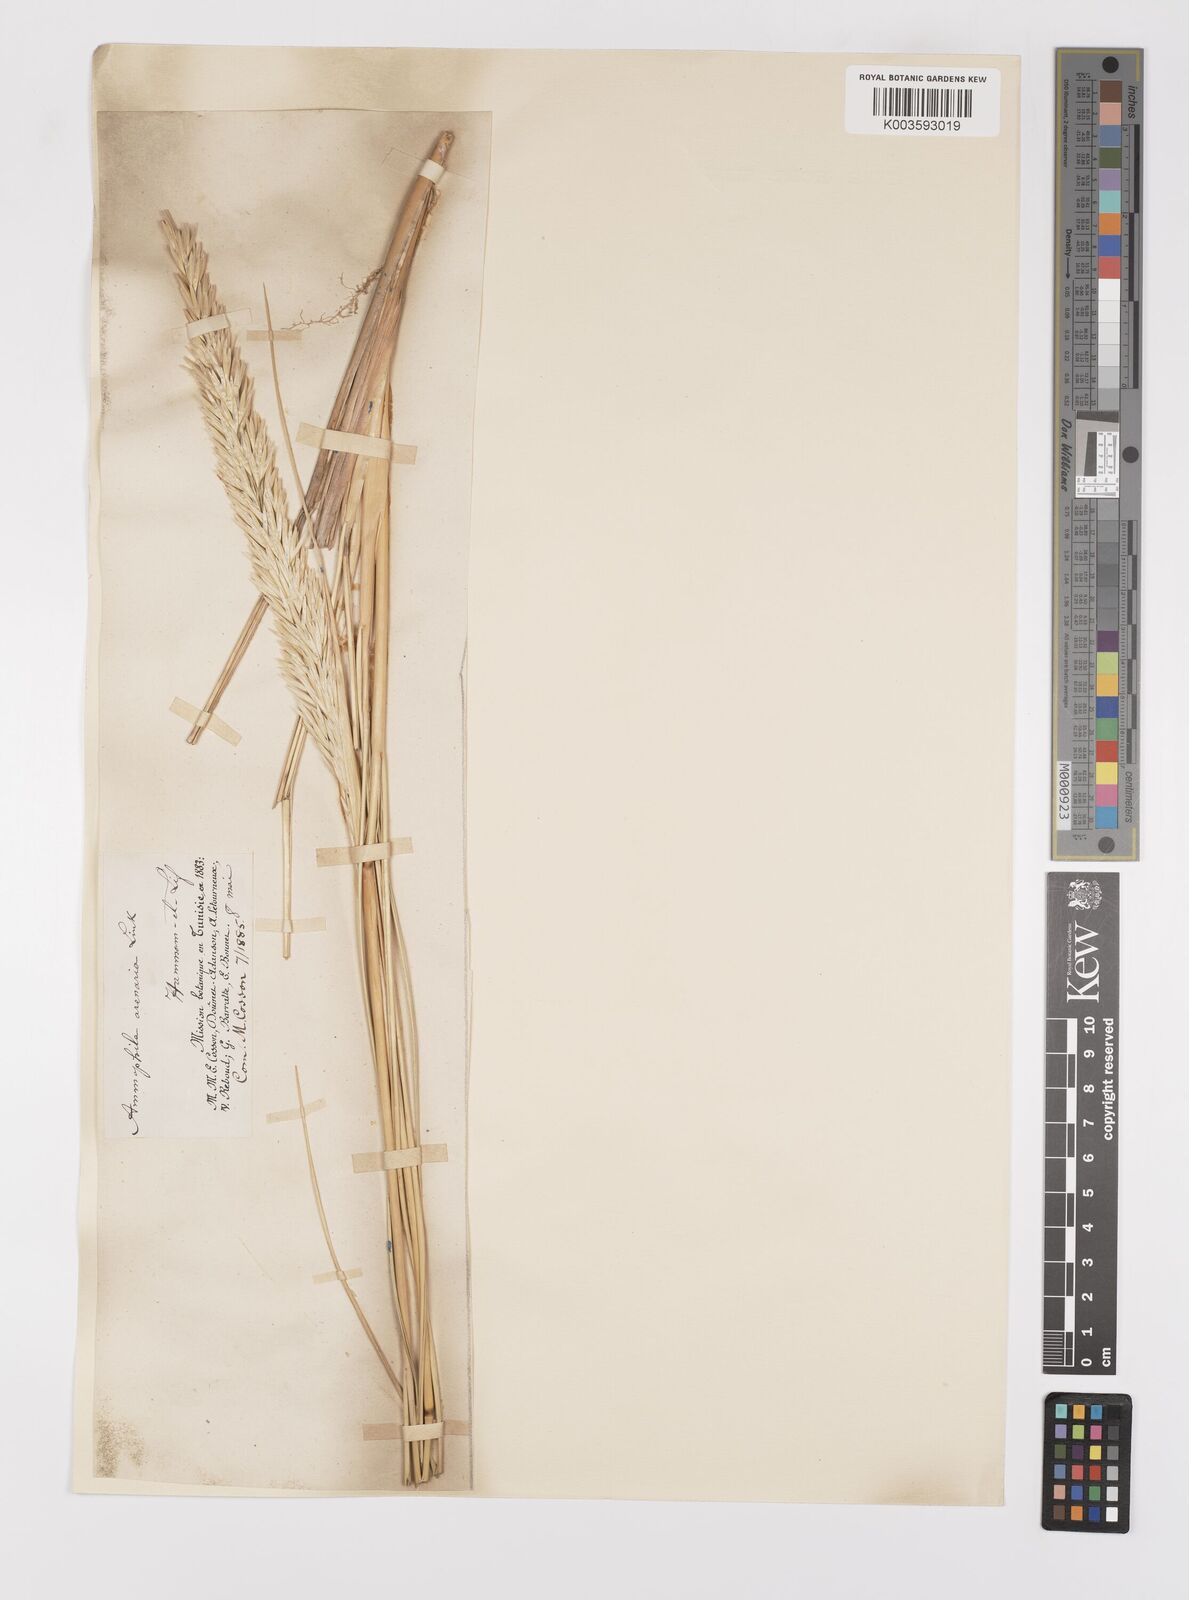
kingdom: Plantae
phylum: Tracheophyta
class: Liliopsida
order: Poales
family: Poaceae
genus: Calamagrostis
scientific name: Calamagrostis arenaria
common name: European beachgrass
